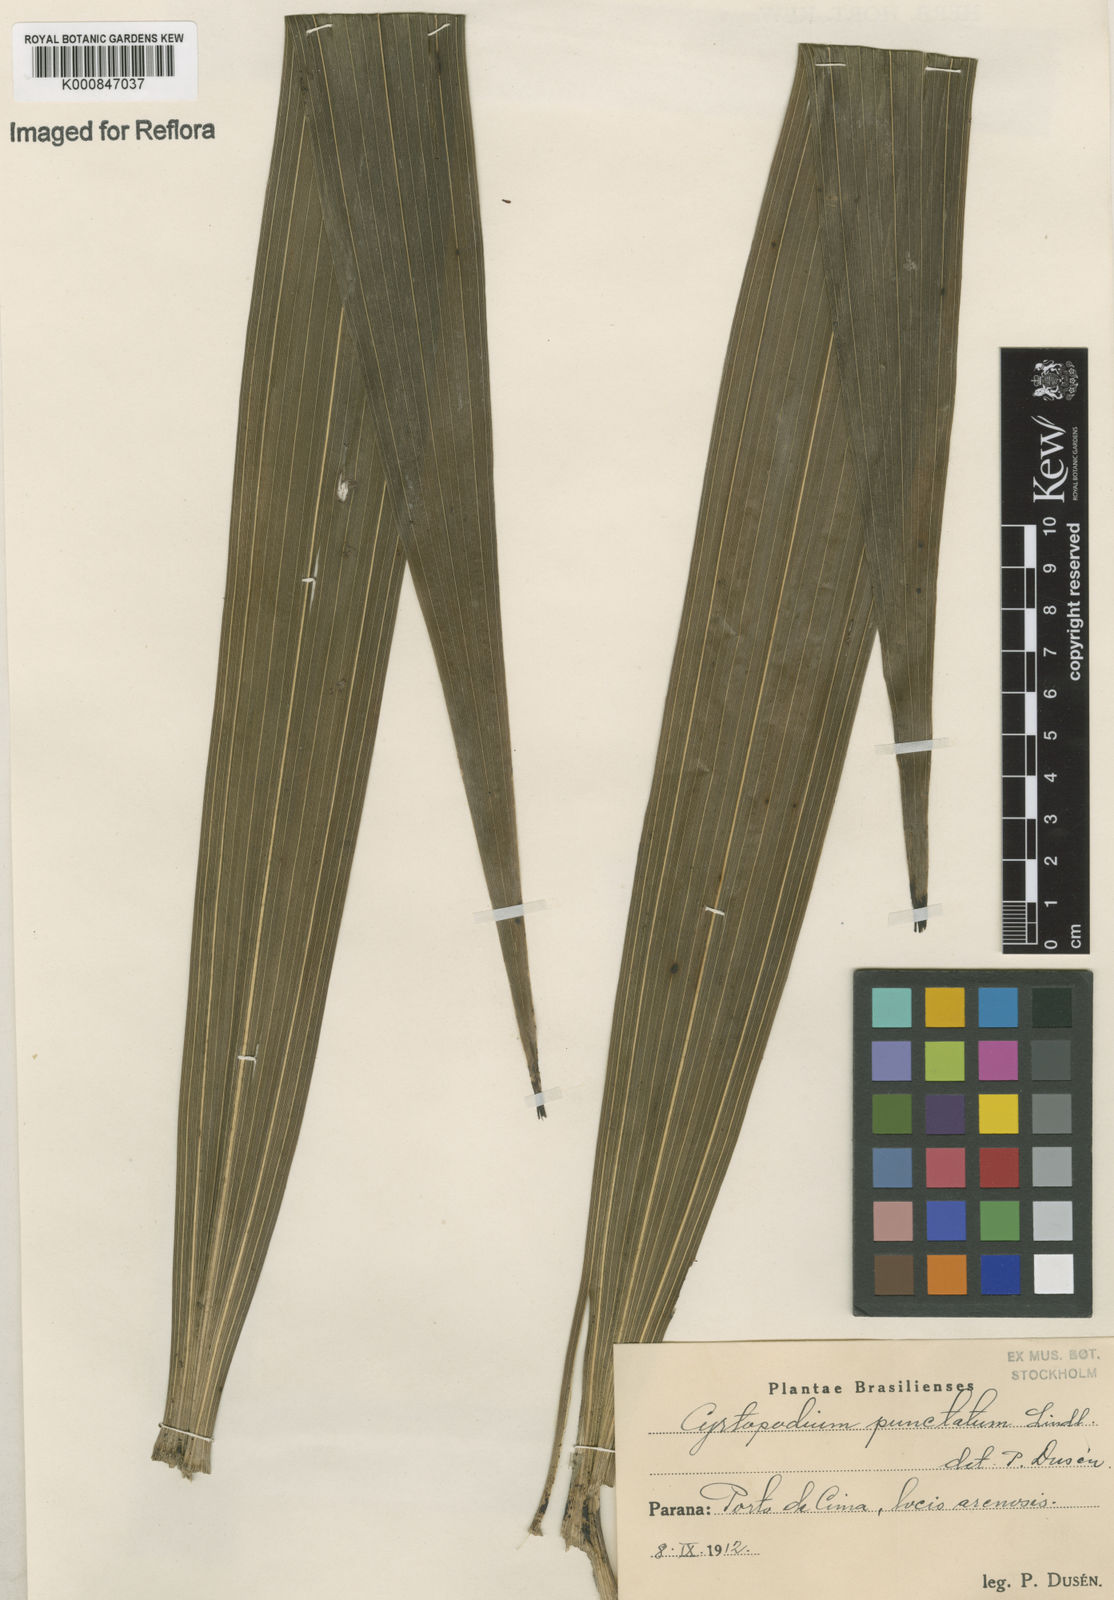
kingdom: Plantae
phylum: Tracheophyta
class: Liliopsida
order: Asparagales
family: Orchidaceae
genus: Cyrtopodium
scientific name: Cyrtopodium punctatum
